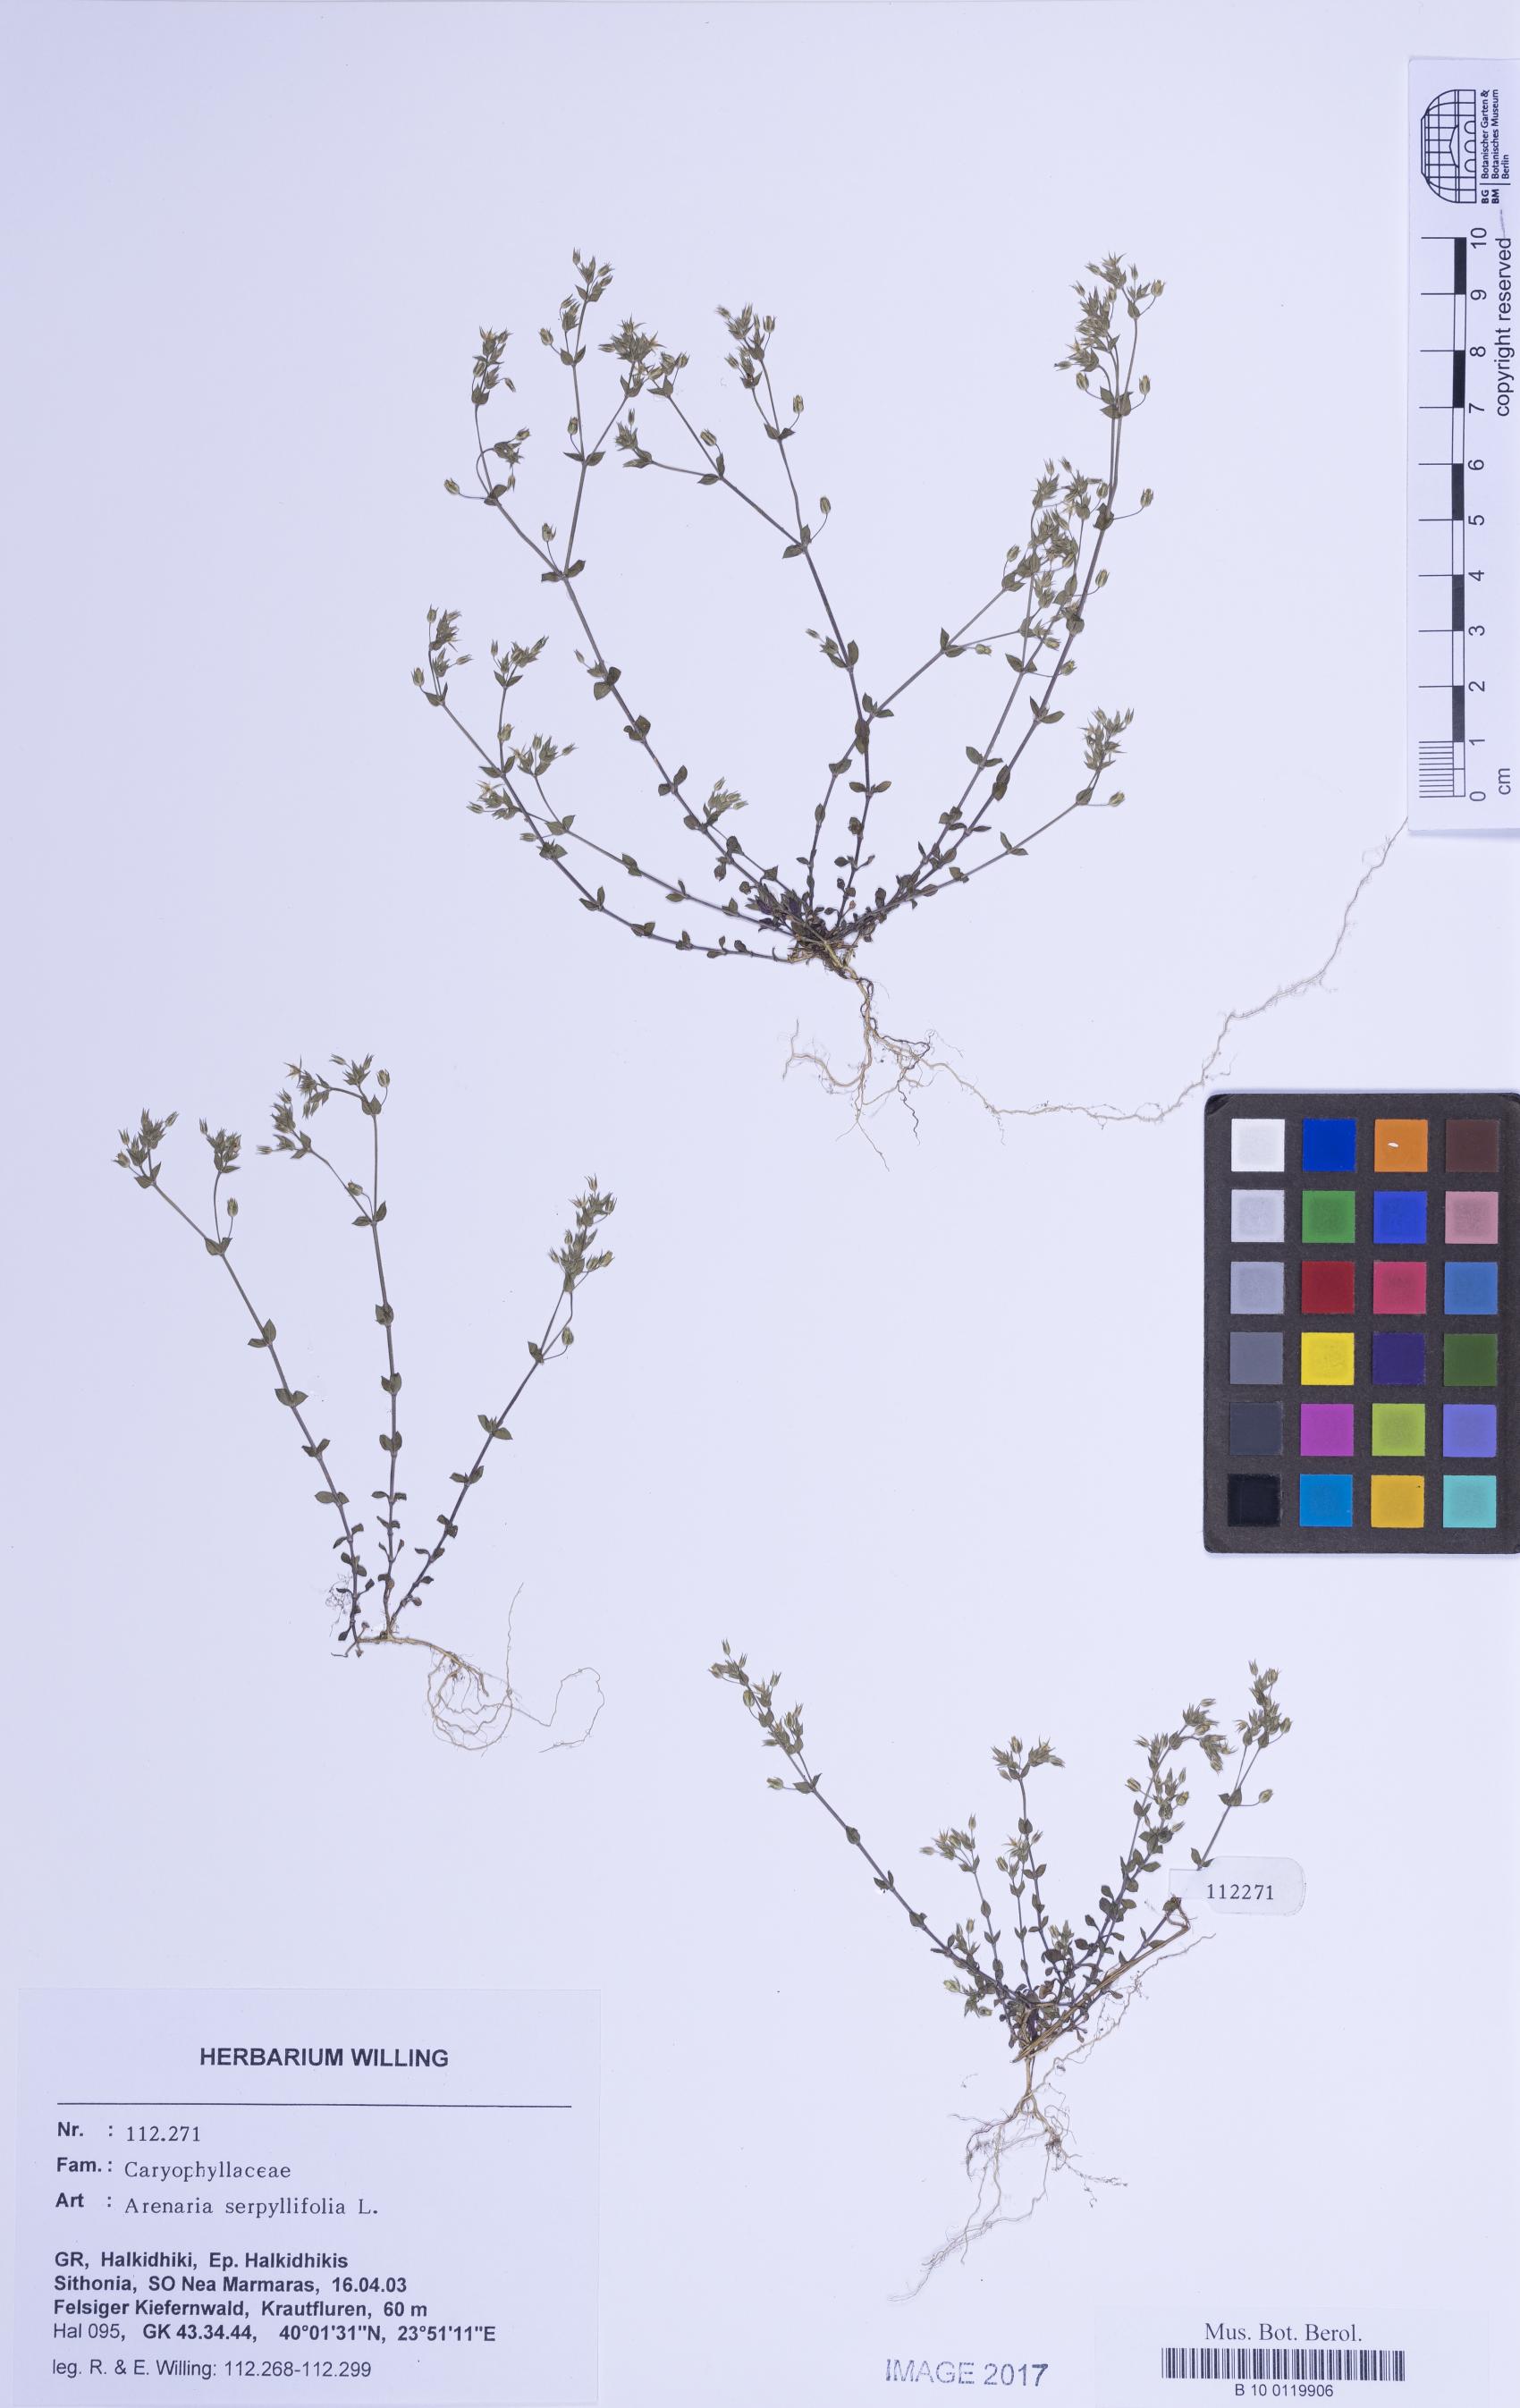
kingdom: Plantae
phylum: Tracheophyta
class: Magnoliopsida
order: Caryophyllales
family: Caryophyllaceae
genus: Arenaria
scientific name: Arenaria serpyllifolia
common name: Thyme-leaved sandwort
